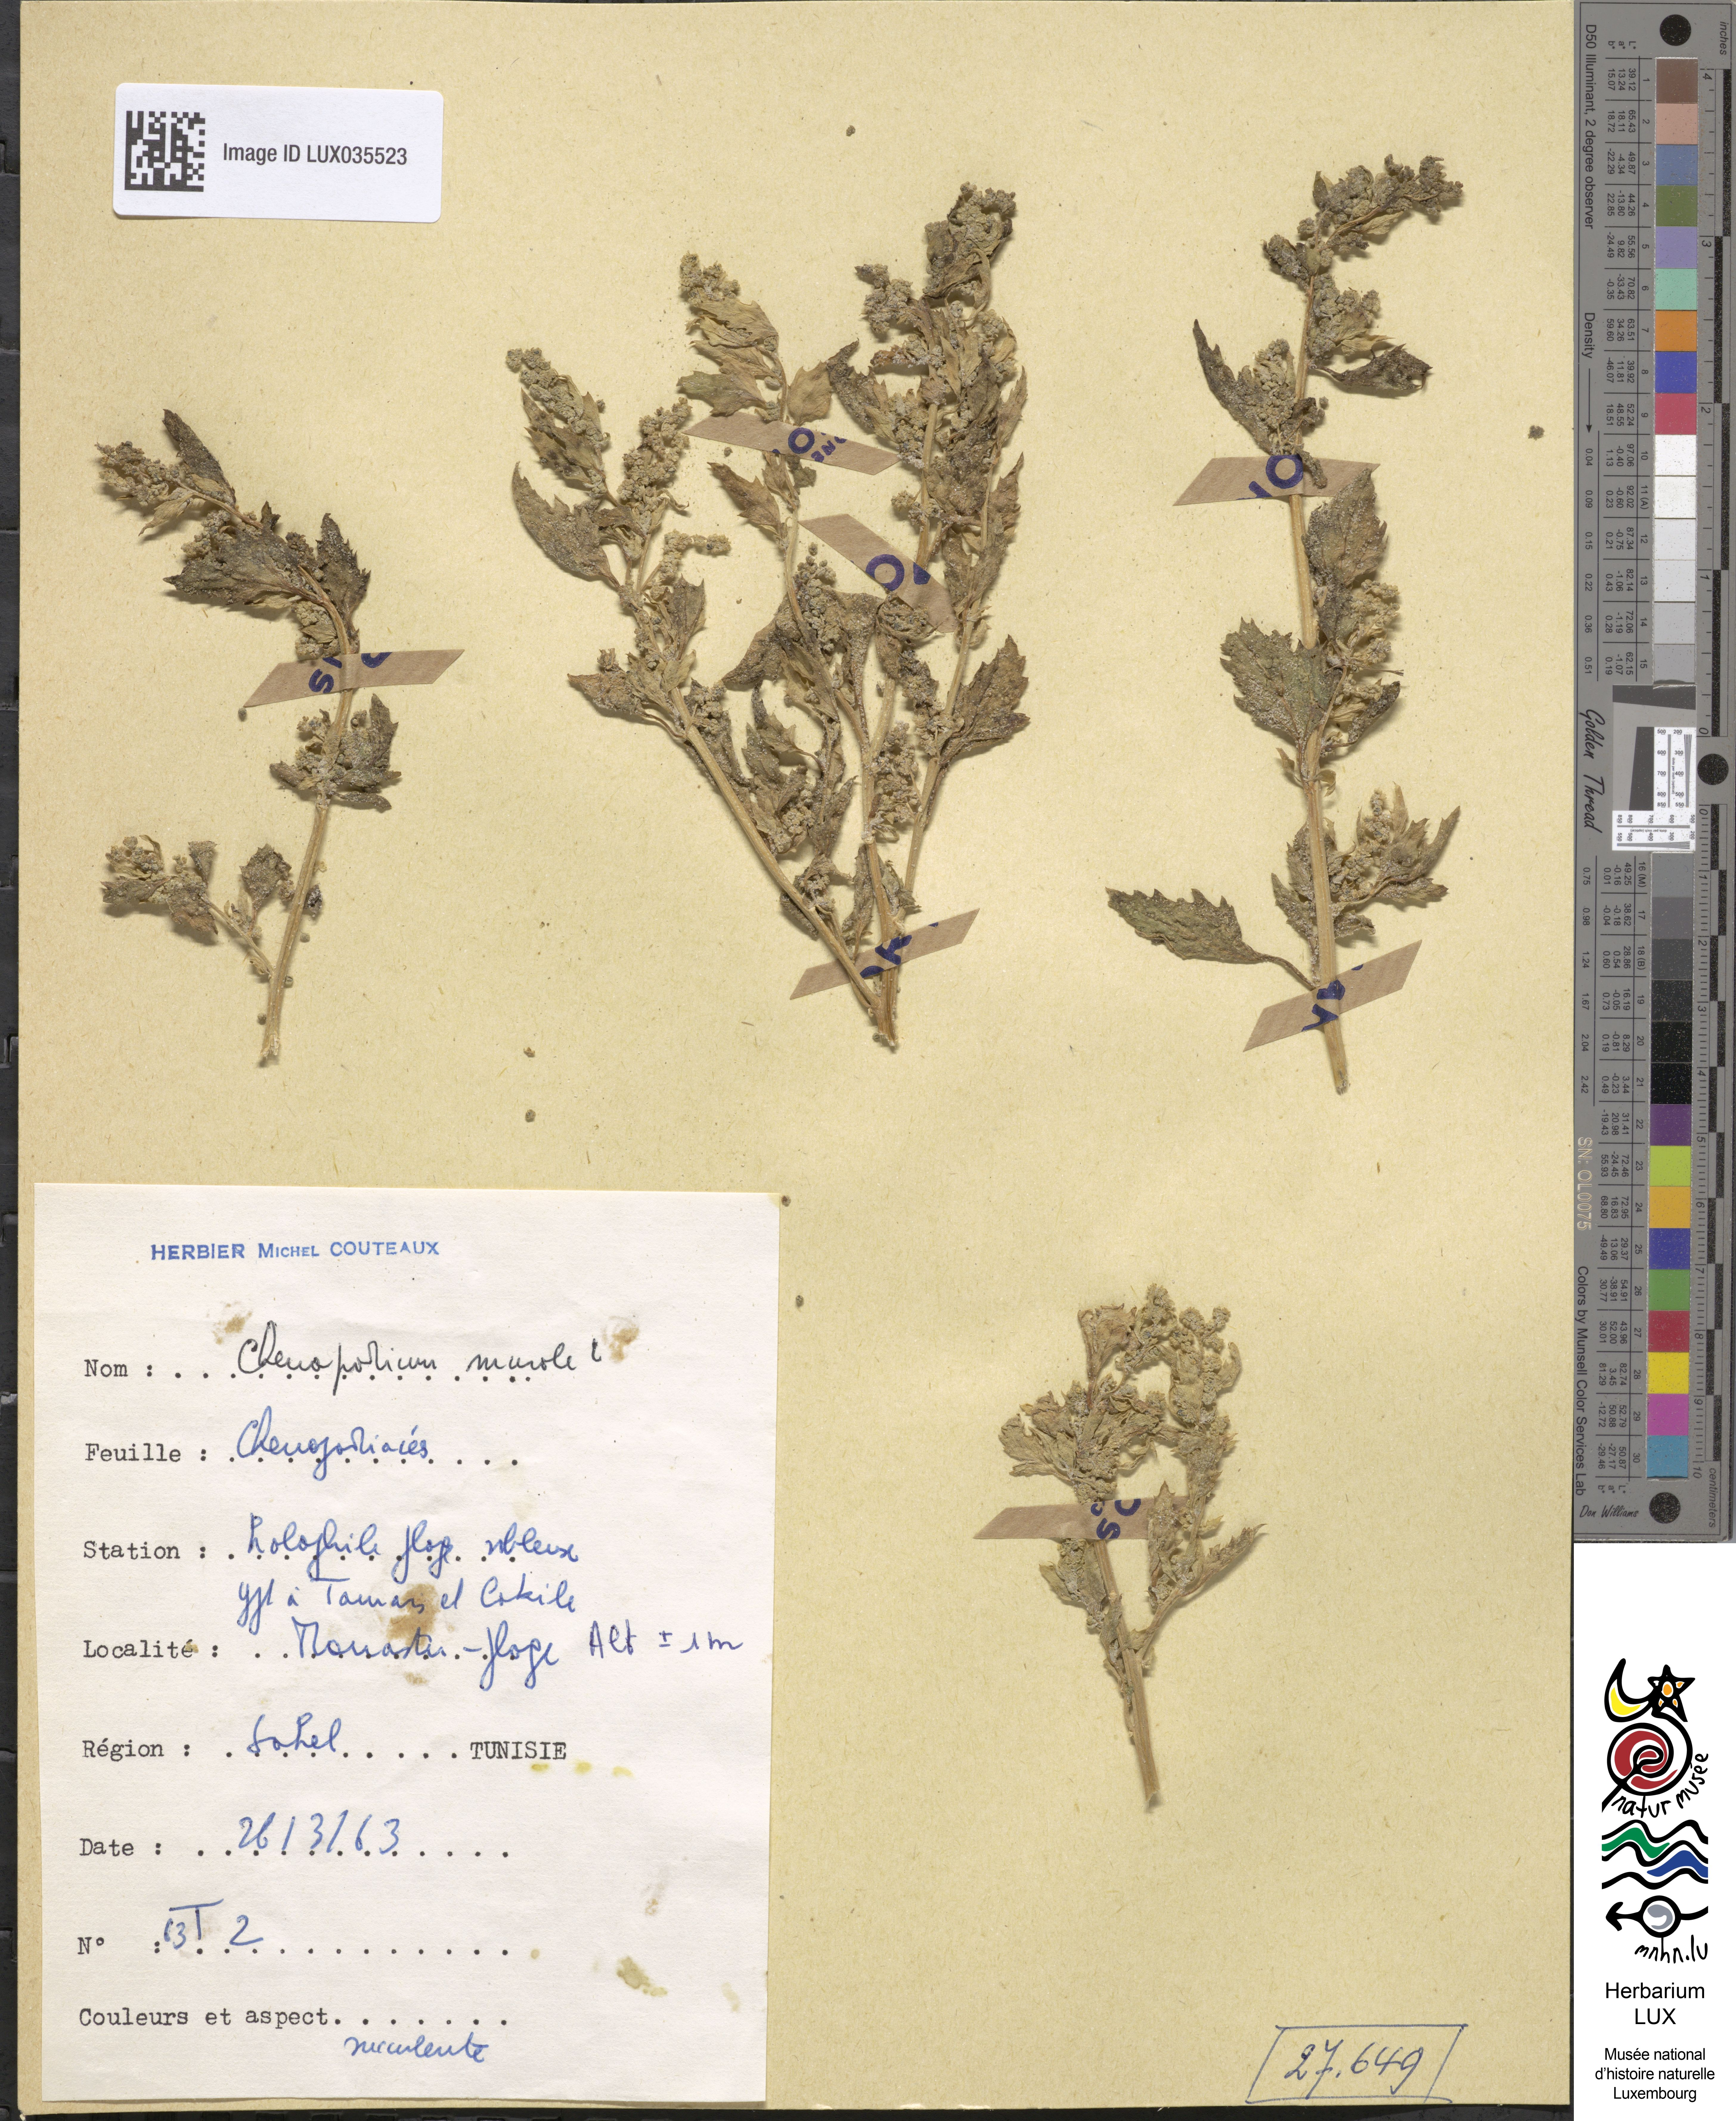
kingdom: Plantae
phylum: Tracheophyta
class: Magnoliopsida
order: Caryophyllales
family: Amaranthaceae
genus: Chenopodiastrum
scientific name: Chenopodiastrum murale
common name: Sowbane
